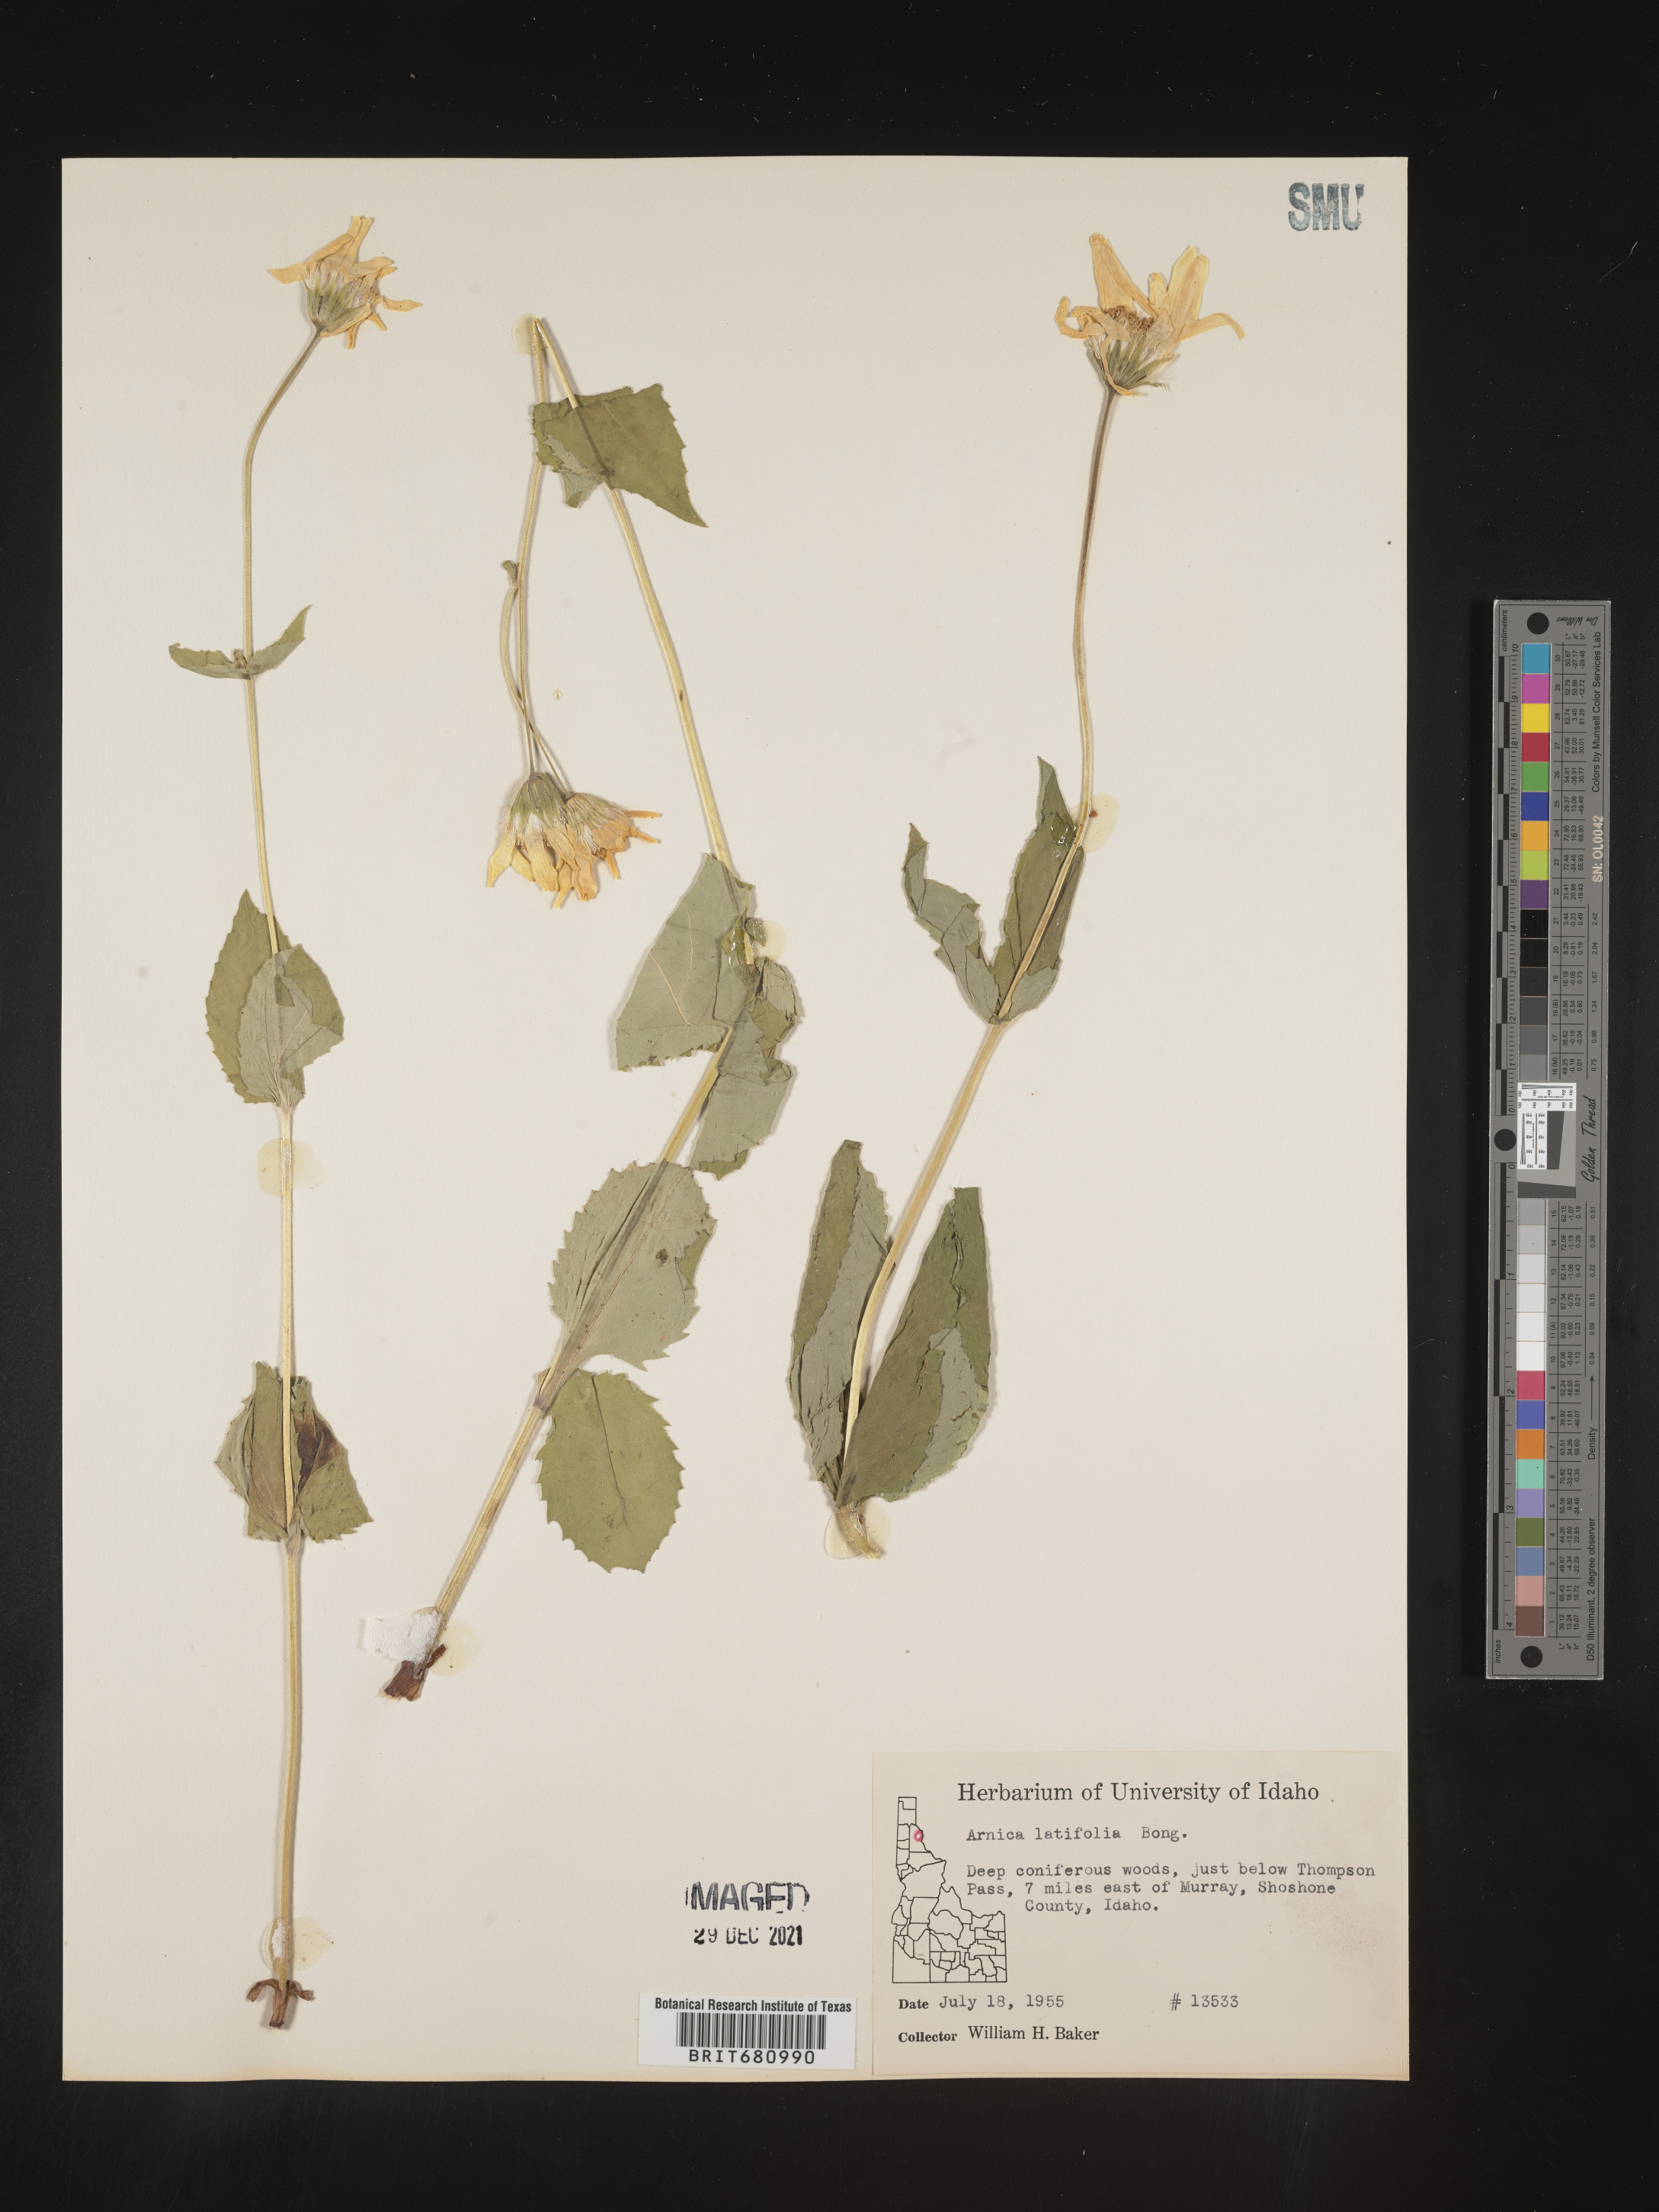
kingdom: Plantae
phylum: Tracheophyta
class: Magnoliopsida
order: Asterales
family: Asteraceae
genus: Arnica
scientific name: Arnica latifolia
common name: Arnica
